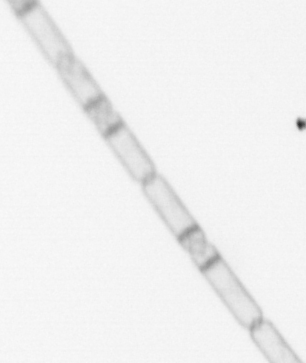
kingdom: Chromista
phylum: Ochrophyta
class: Bacillariophyceae
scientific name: Bacillariophyceae
